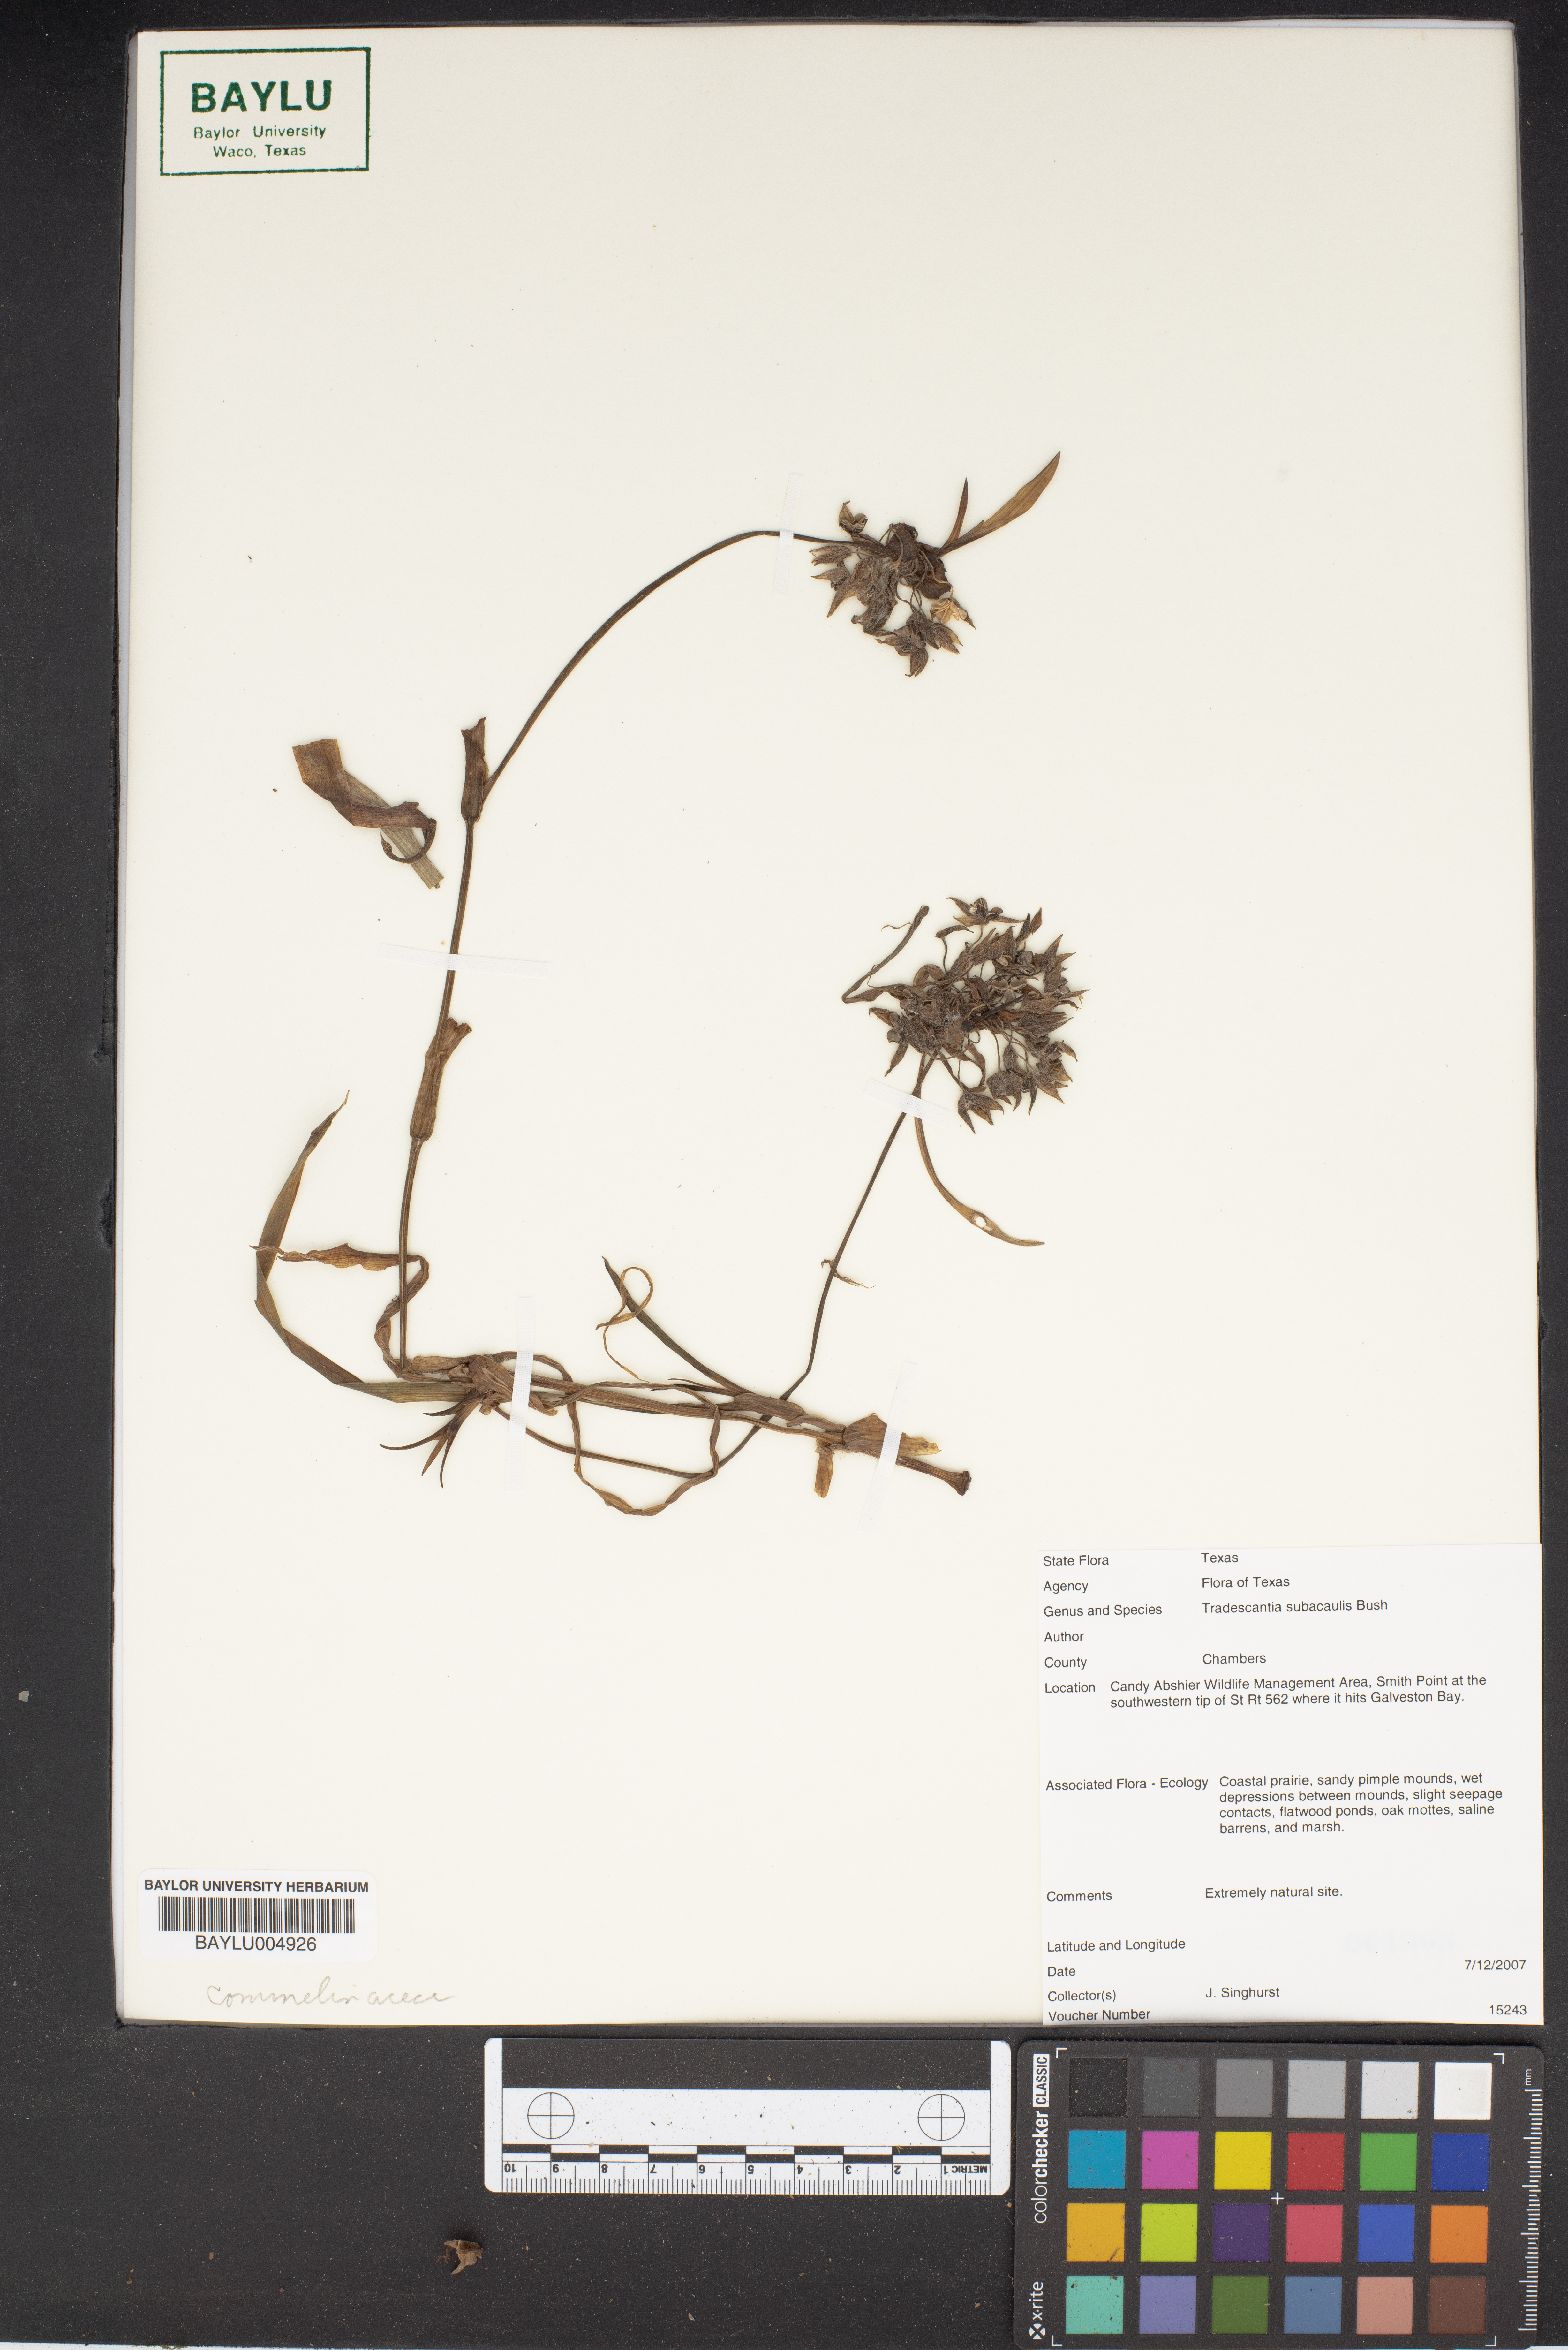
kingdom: Plantae
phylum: Tracheophyta
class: Liliopsida
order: Commelinales
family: Commelinaceae
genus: Tradescantia
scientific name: Tradescantia subacaulis
